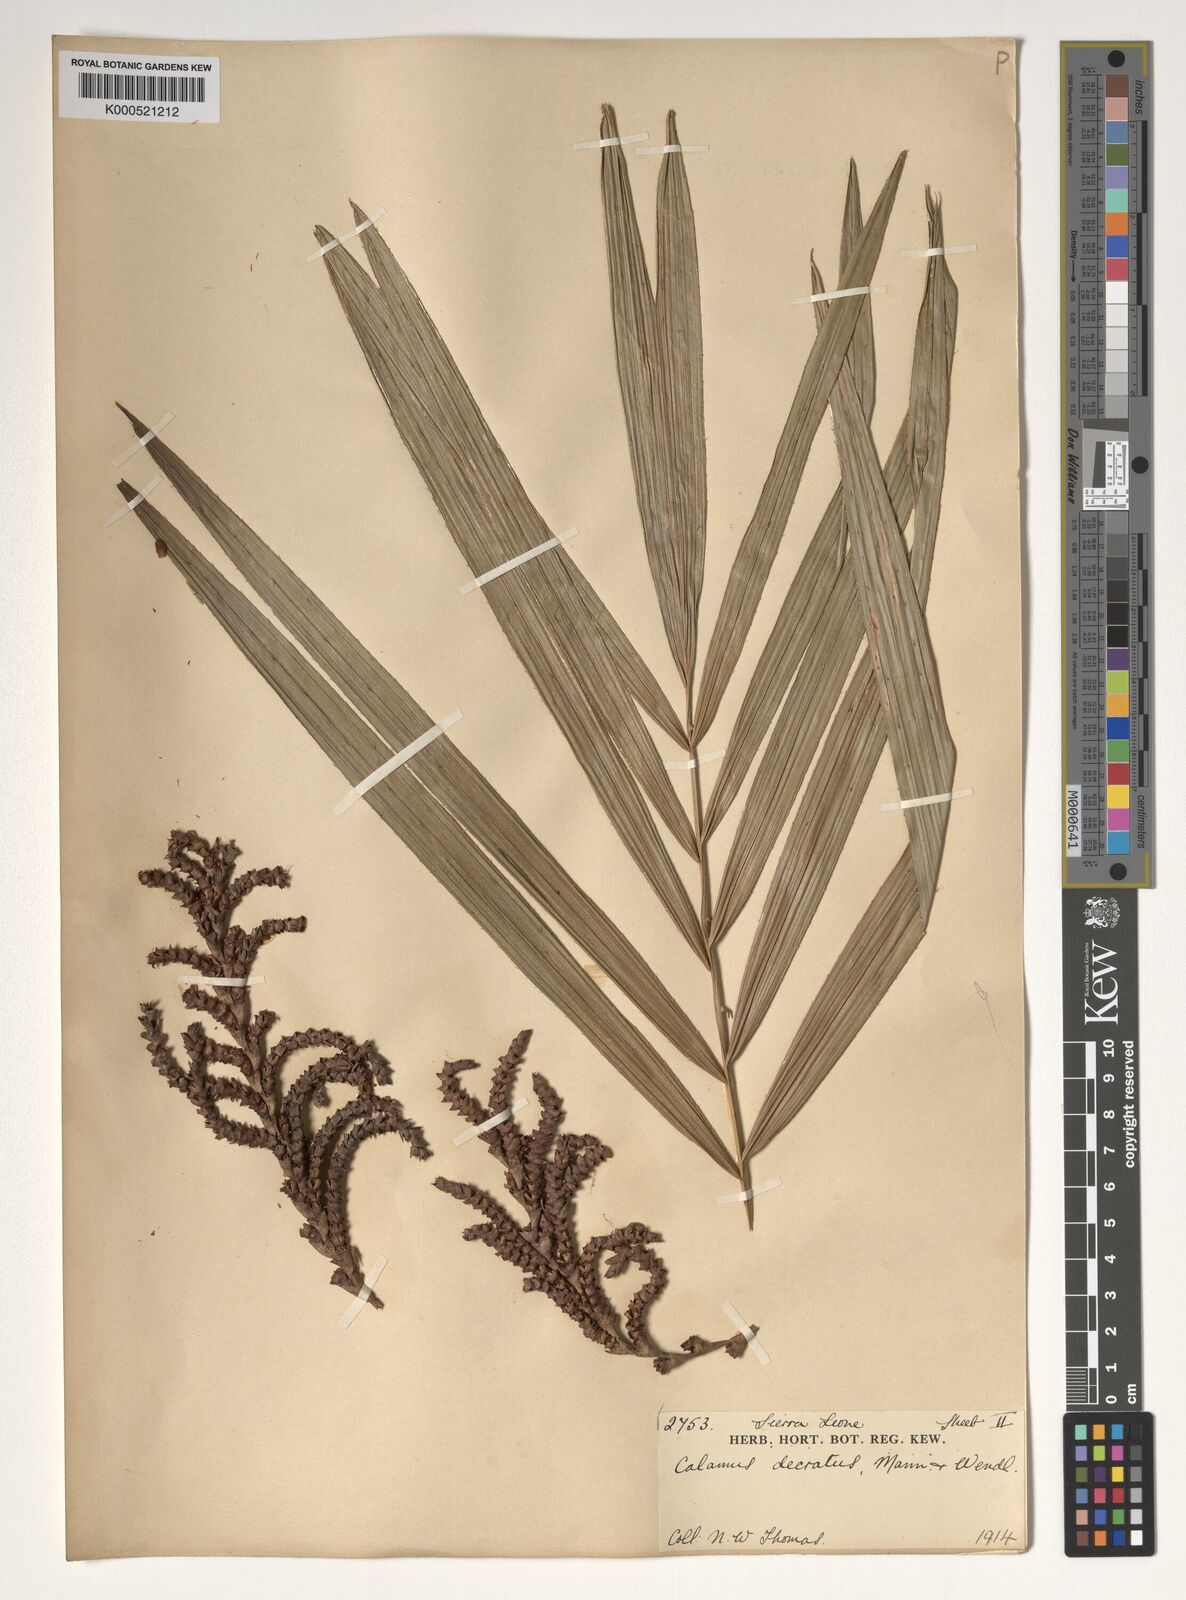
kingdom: Plantae
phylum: Tracheophyta
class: Liliopsida
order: Arecales
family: Arecaceae
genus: Calamus
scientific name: Calamus deerratus
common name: Rattan
